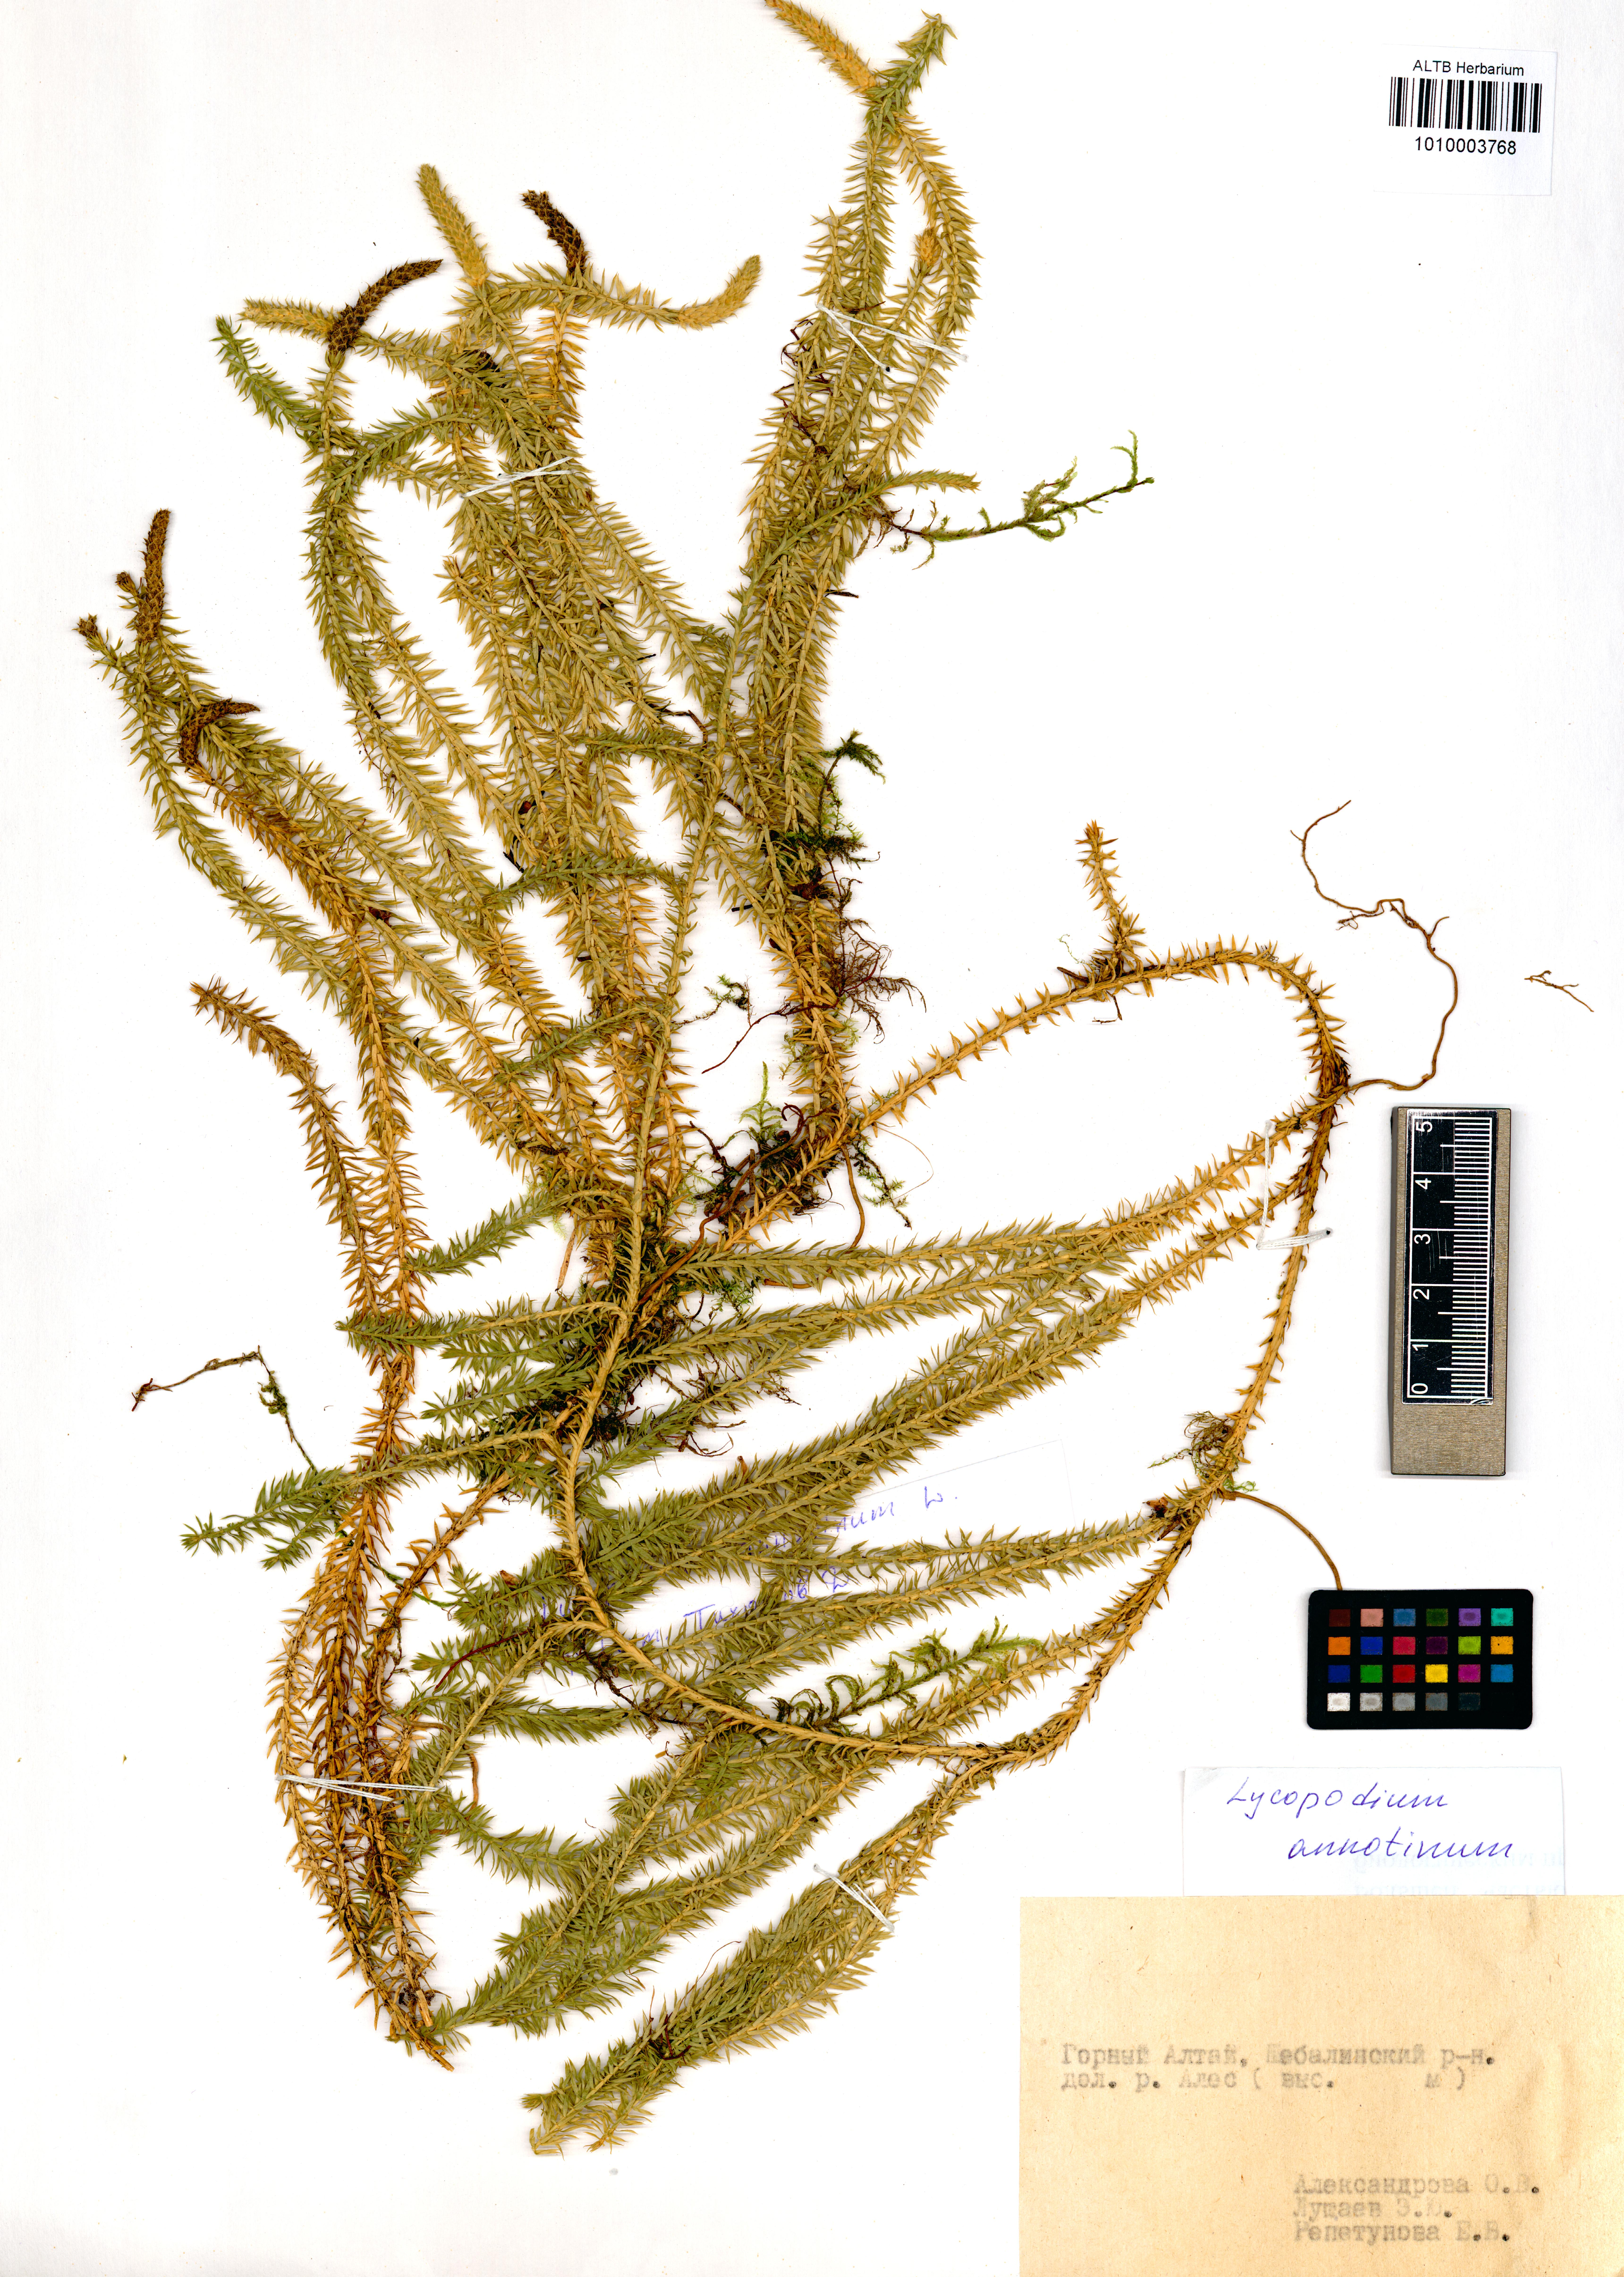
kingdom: Plantae
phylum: Tracheophyta
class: Lycopodiopsida
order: Lycopodiales
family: Lycopodiaceae
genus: Spinulum
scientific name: Spinulum annotinum
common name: Interrupted club-moss
